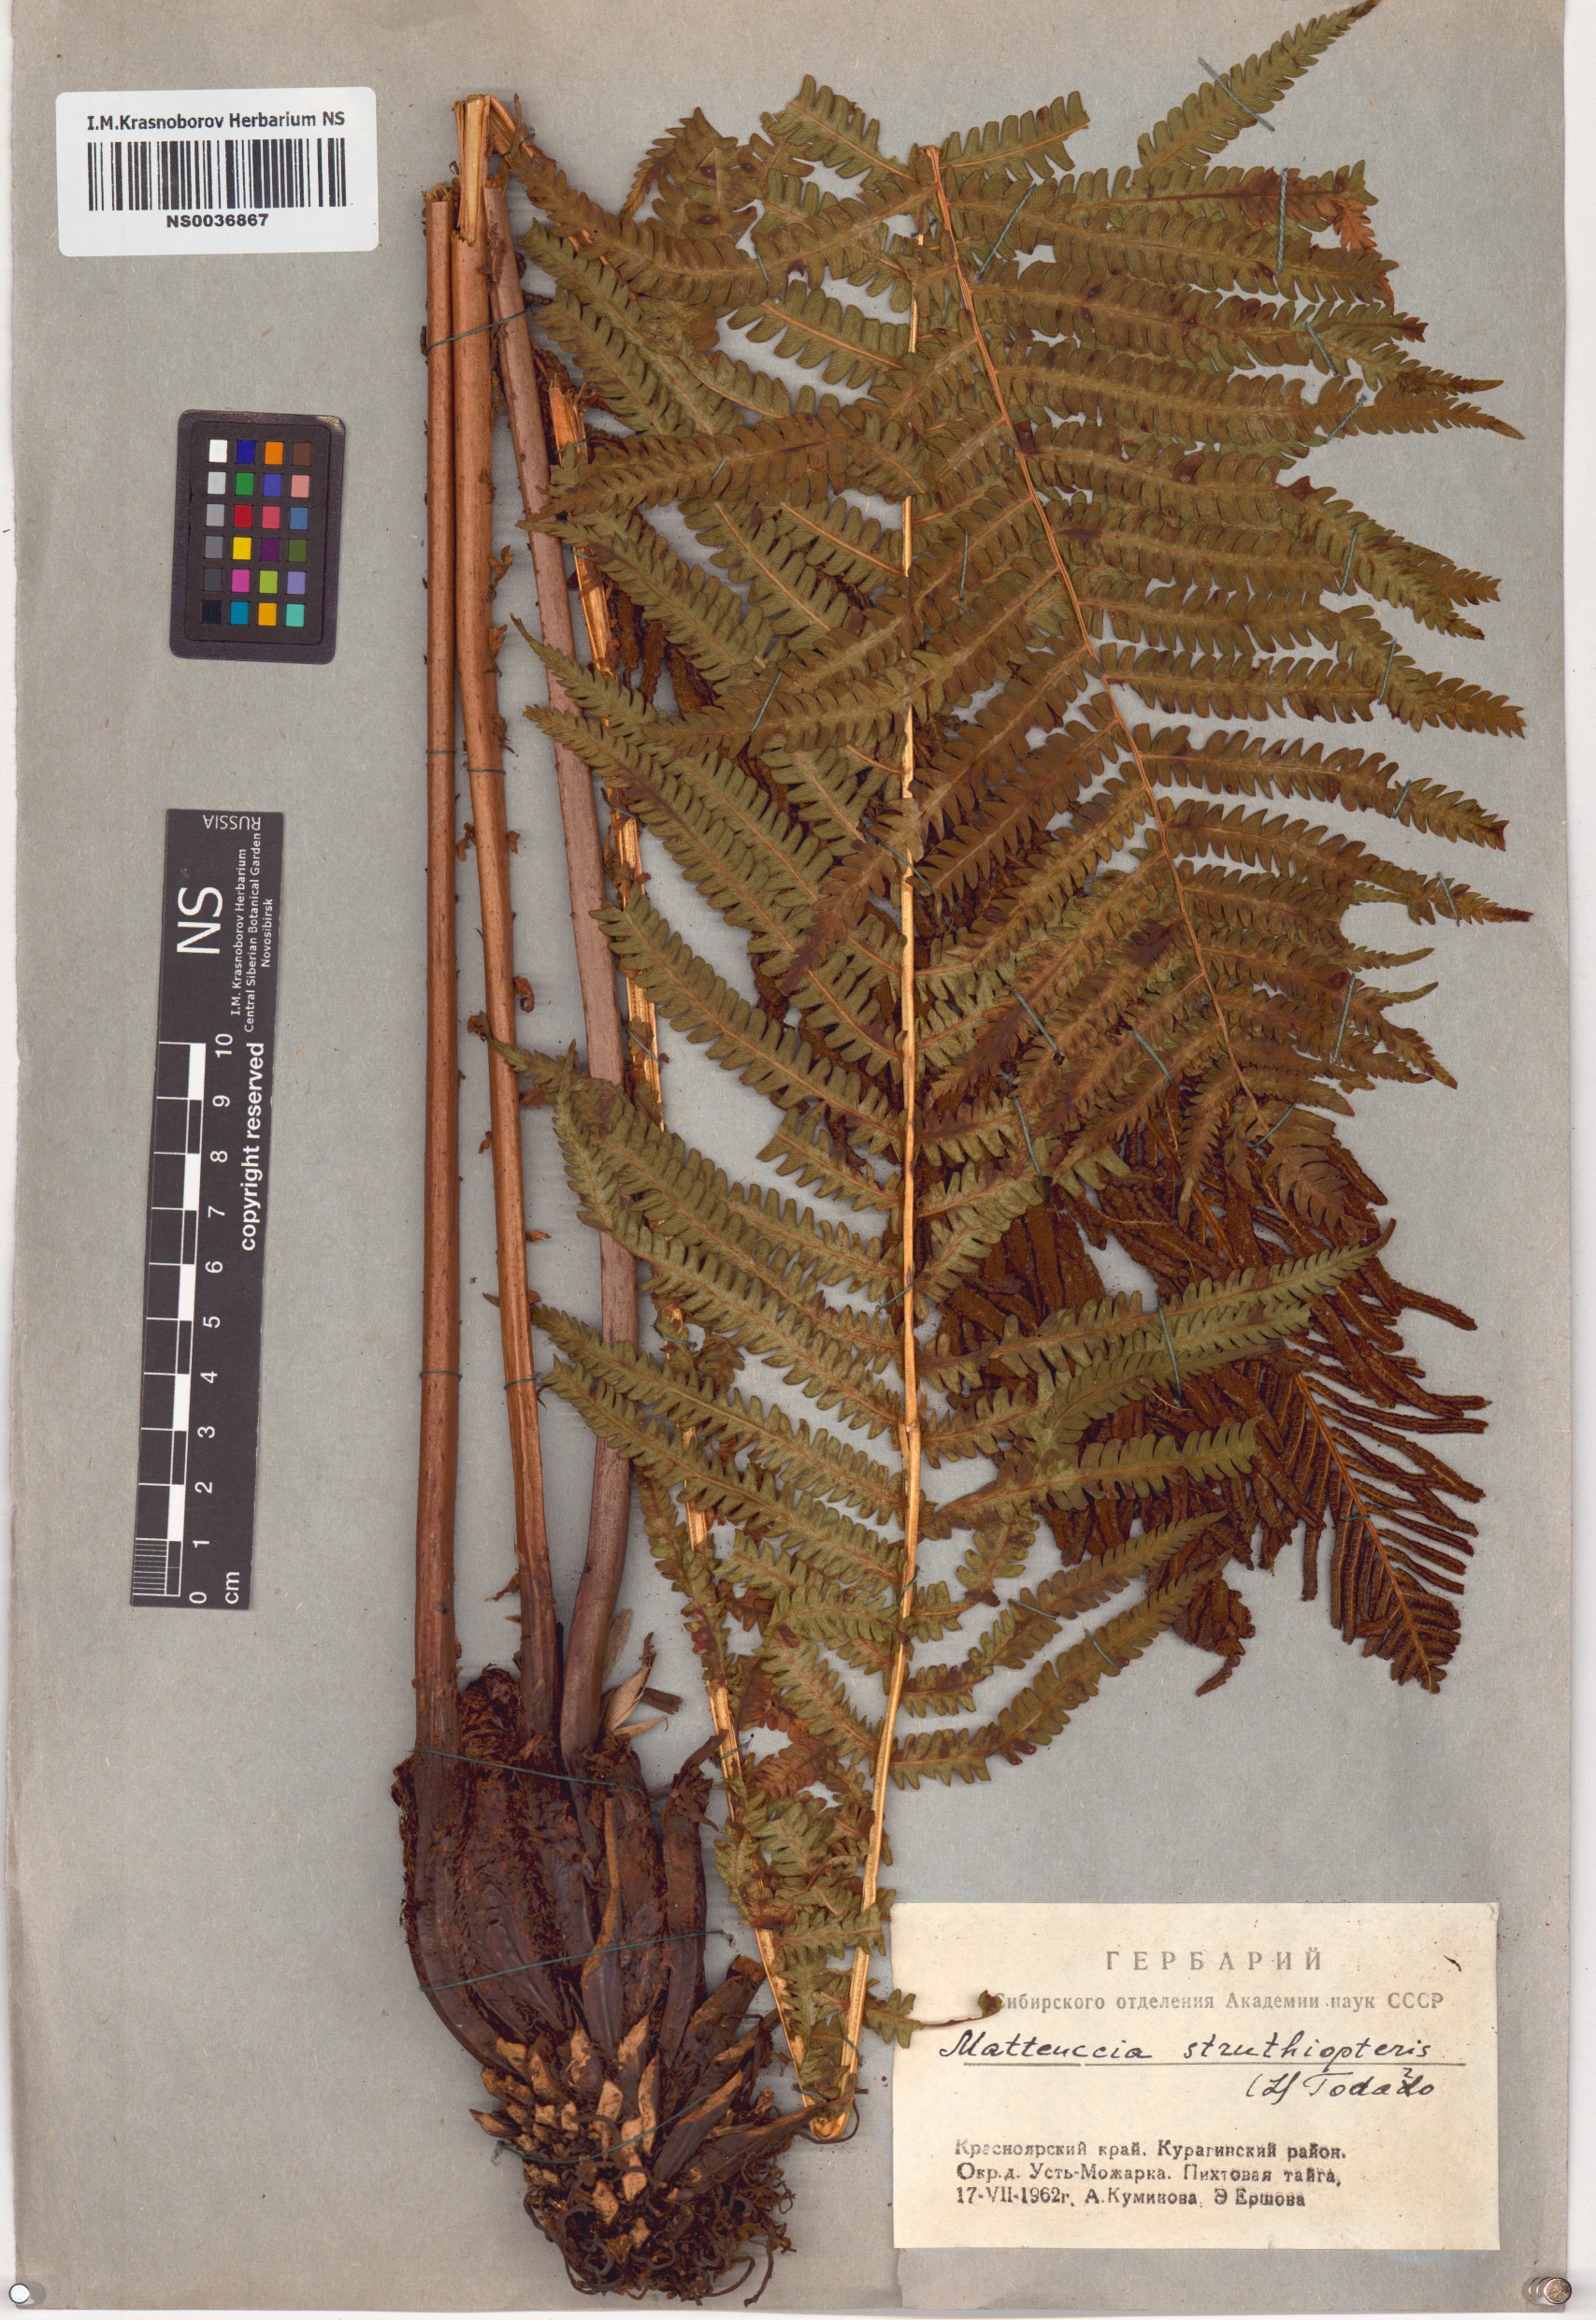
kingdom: Plantae
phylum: Tracheophyta
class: Polypodiopsida
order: Polypodiales
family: Onocleaceae
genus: Matteuccia
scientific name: Matteuccia struthiopteris
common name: Ostrich fern
